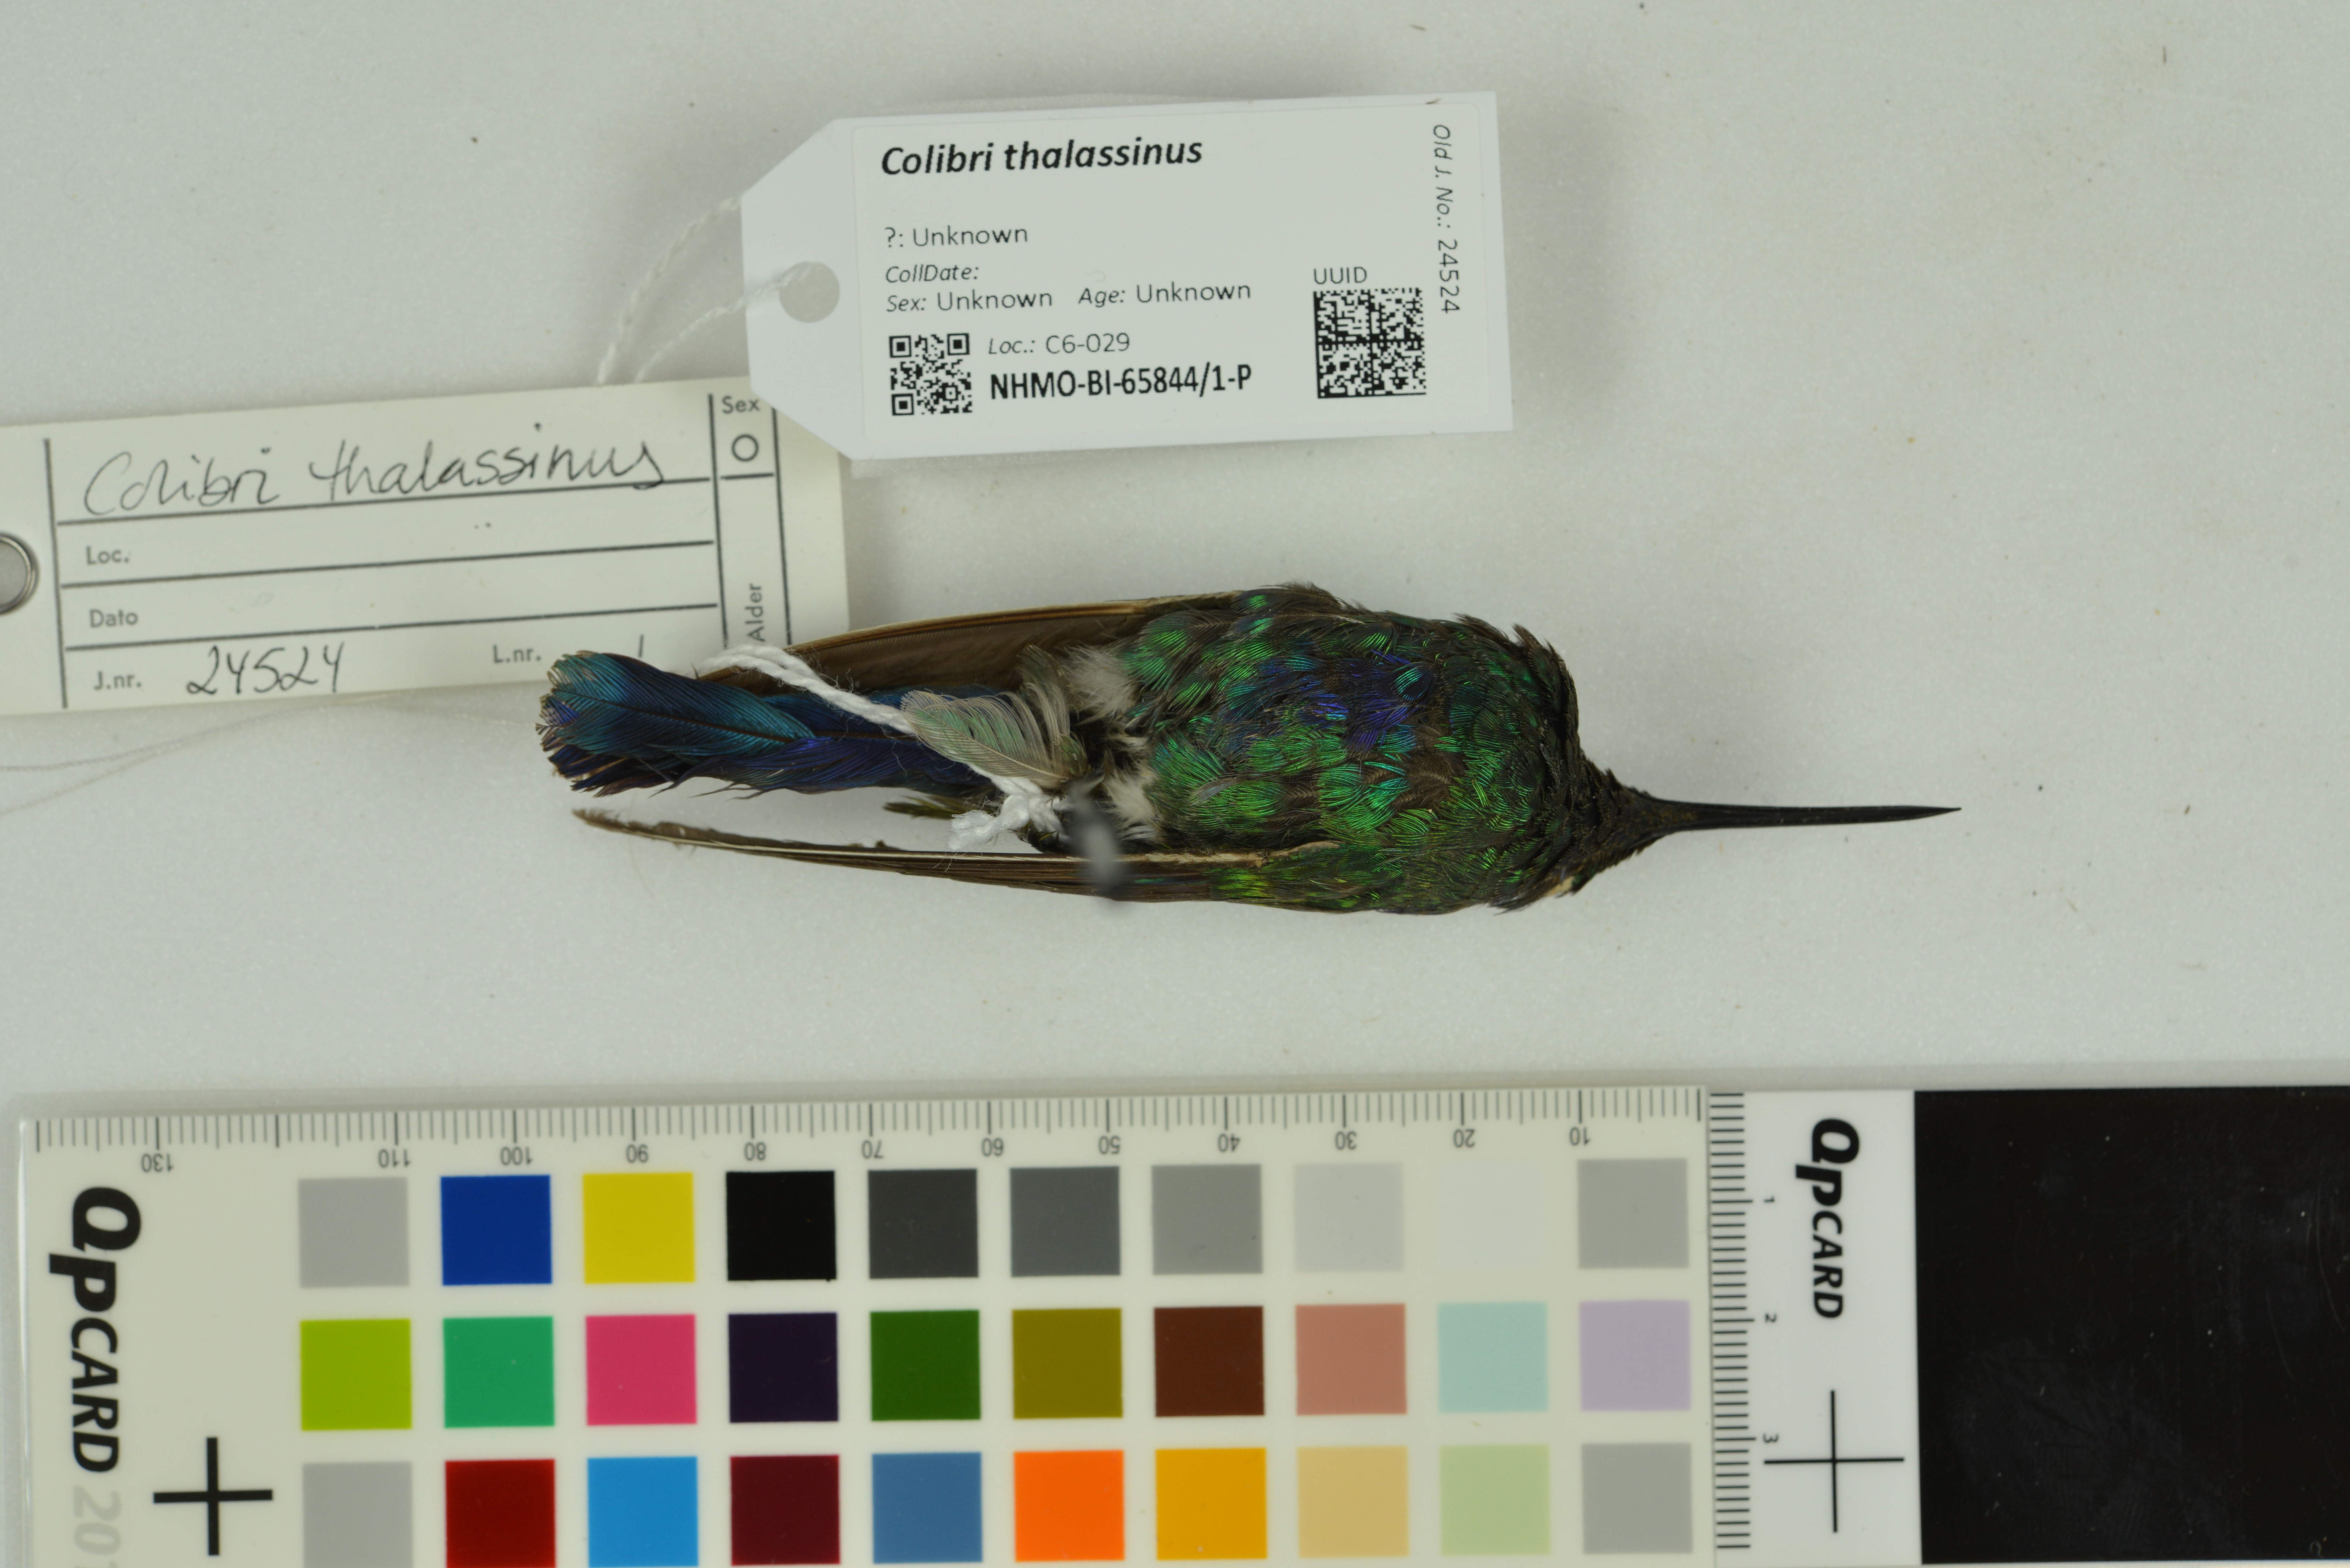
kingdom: Animalia
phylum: Chordata
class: Aves
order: Apodiformes
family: Trochilidae
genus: Colibri
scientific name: Colibri thalassinus
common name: Green violetear
